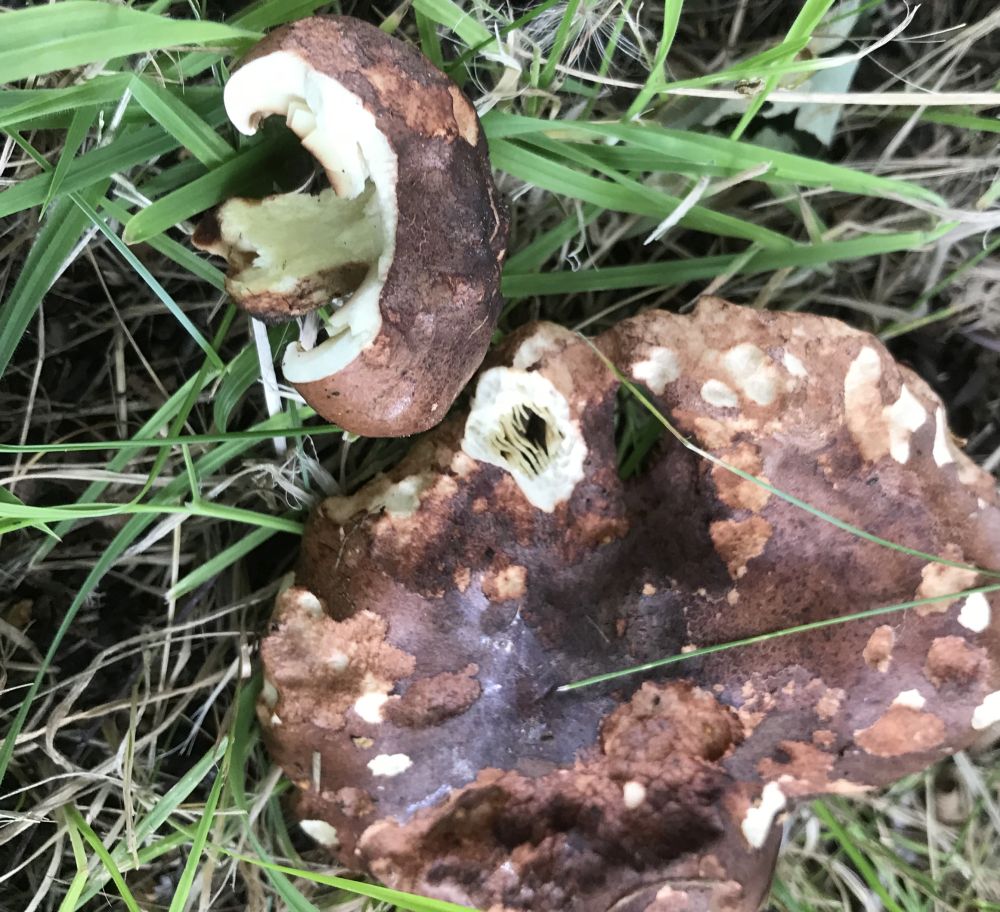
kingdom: Fungi
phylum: Basidiomycota
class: Agaricomycetes
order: Agaricales
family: Tricholomataceae
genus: Tricholoma
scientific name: Tricholoma fulvum
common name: birke-ridderhat
